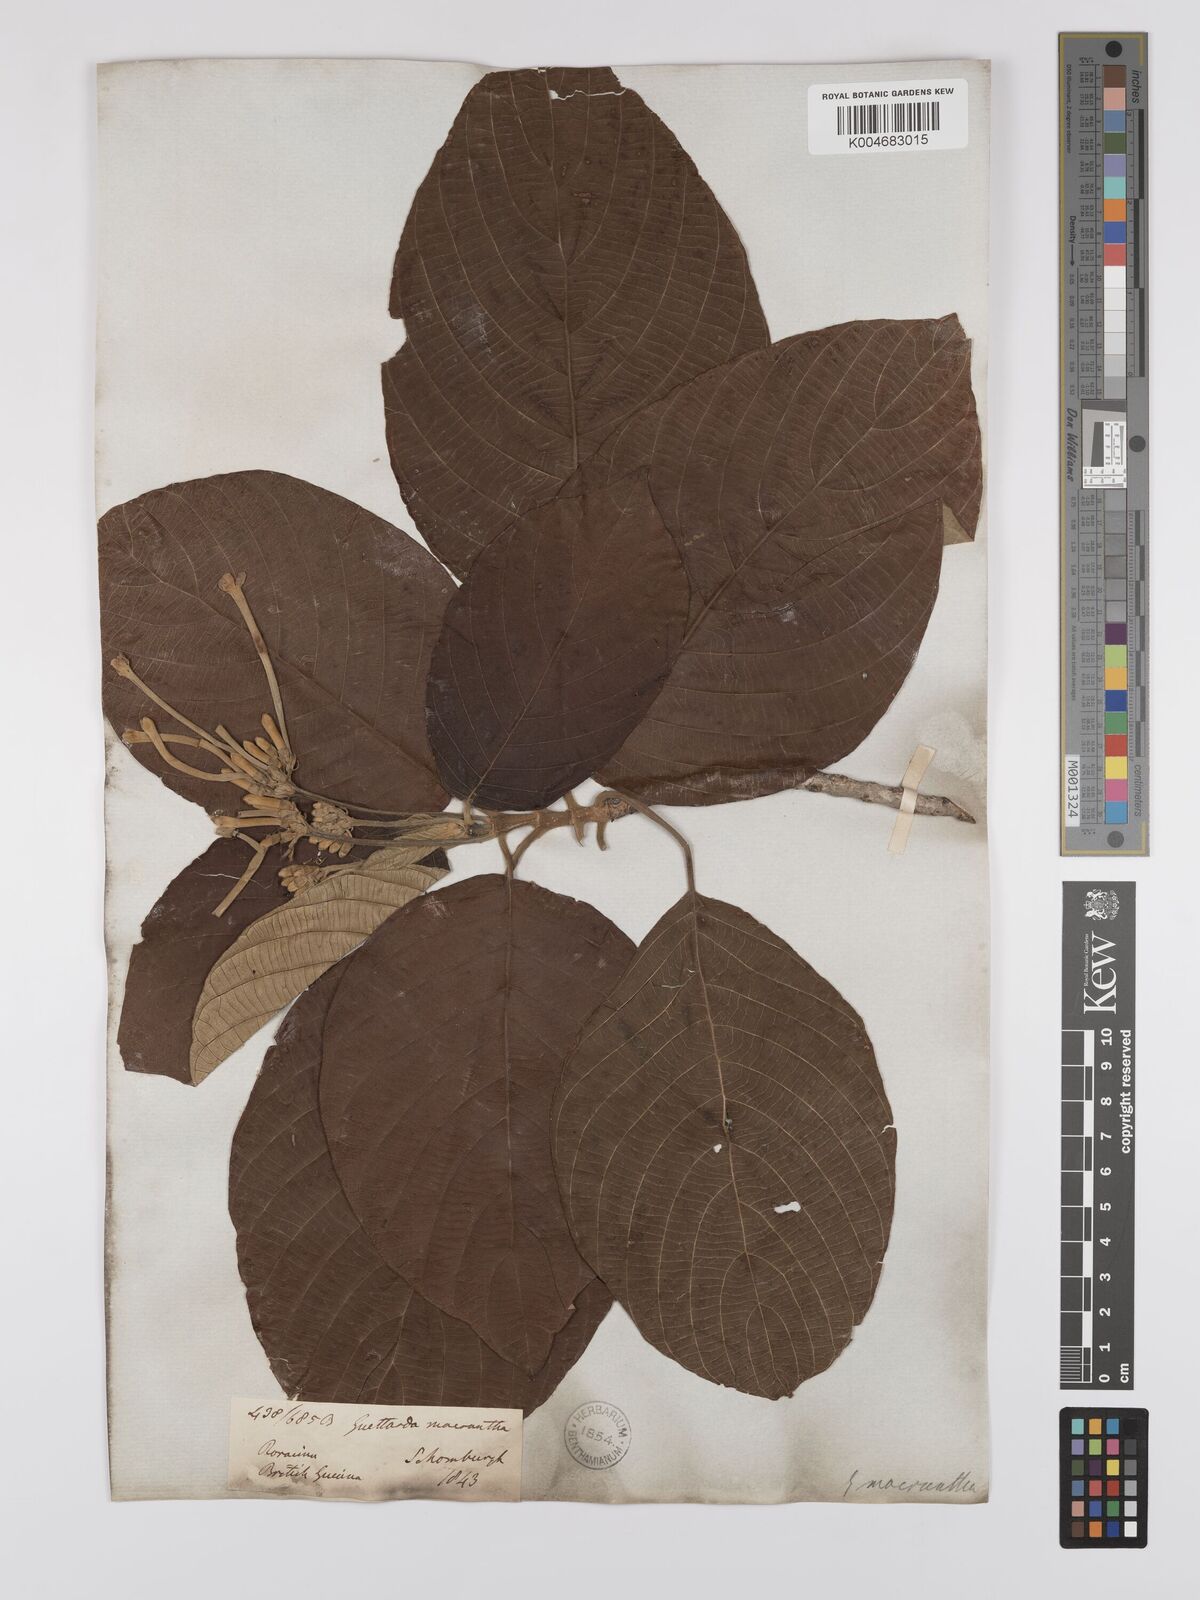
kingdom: Plantae
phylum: Tracheophyta
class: Magnoliopsida
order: Gentianales
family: Rubiaceae
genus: Guettarda
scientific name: Guettarda macrantha
